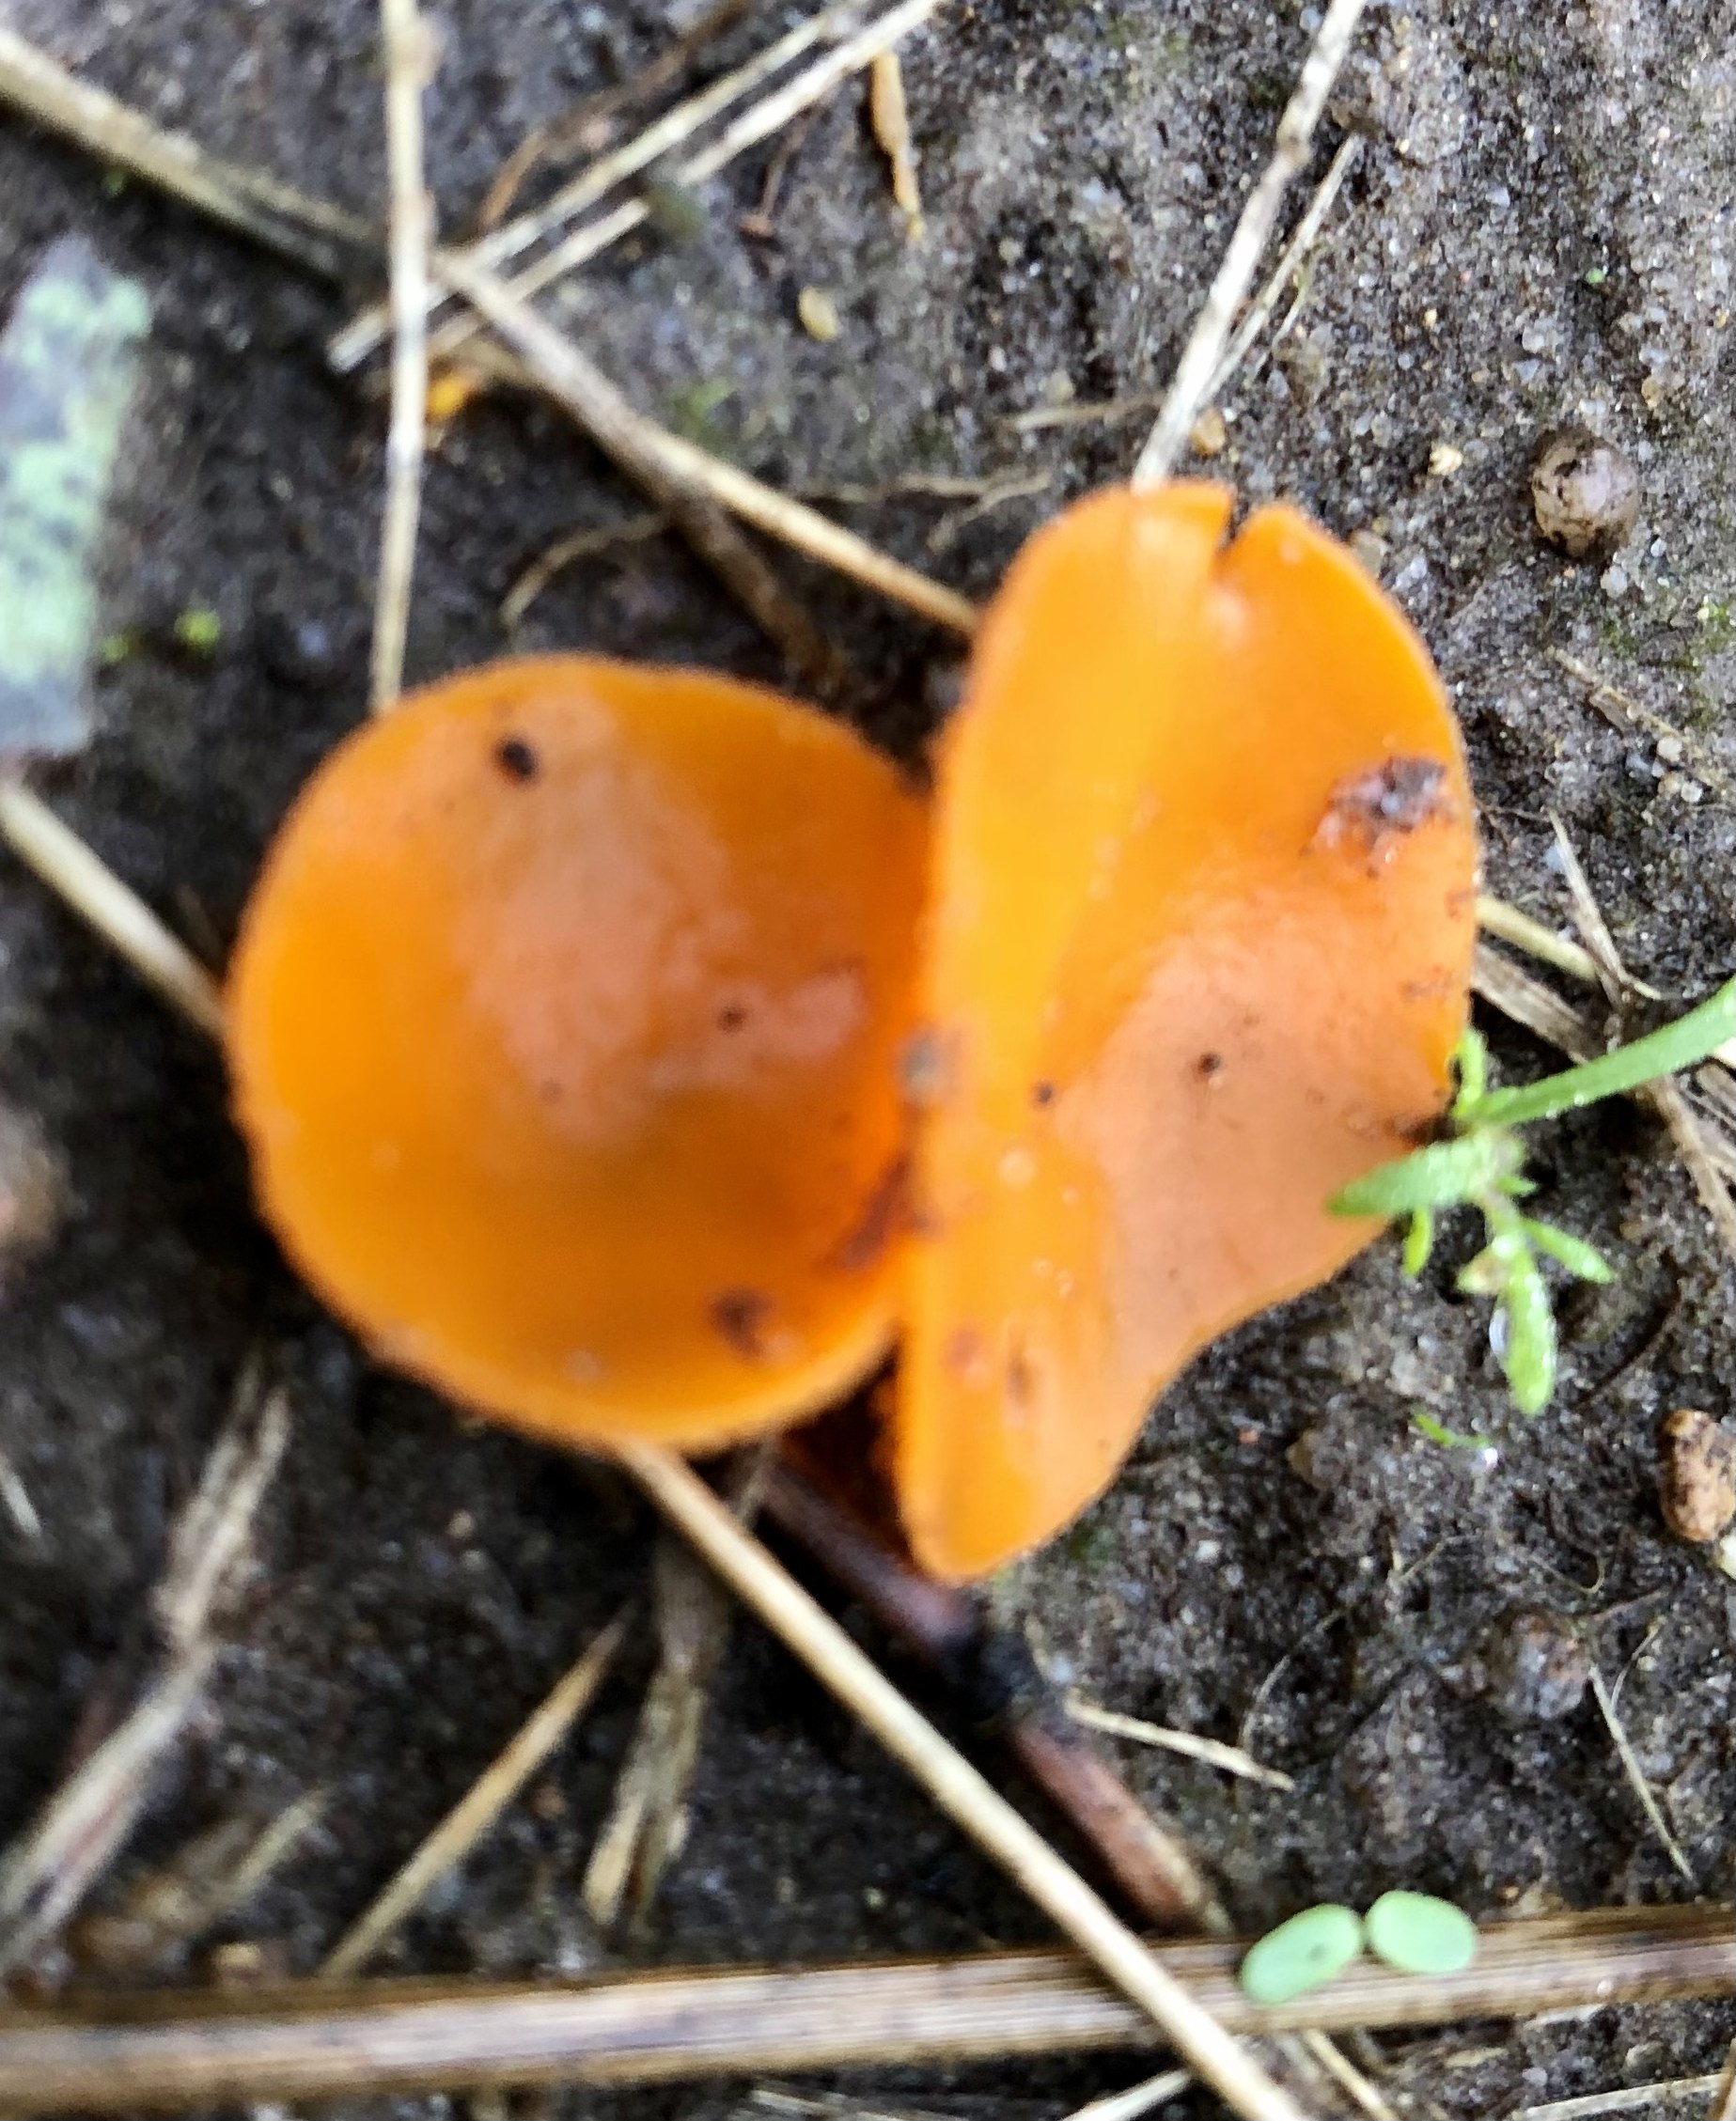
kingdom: Fungi
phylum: Ascomycota
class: Pezizomycetes
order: Pezizales
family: Pyronemataceae
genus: Aleuria
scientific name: Aleuria aurantia
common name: almindelig orangebæger
